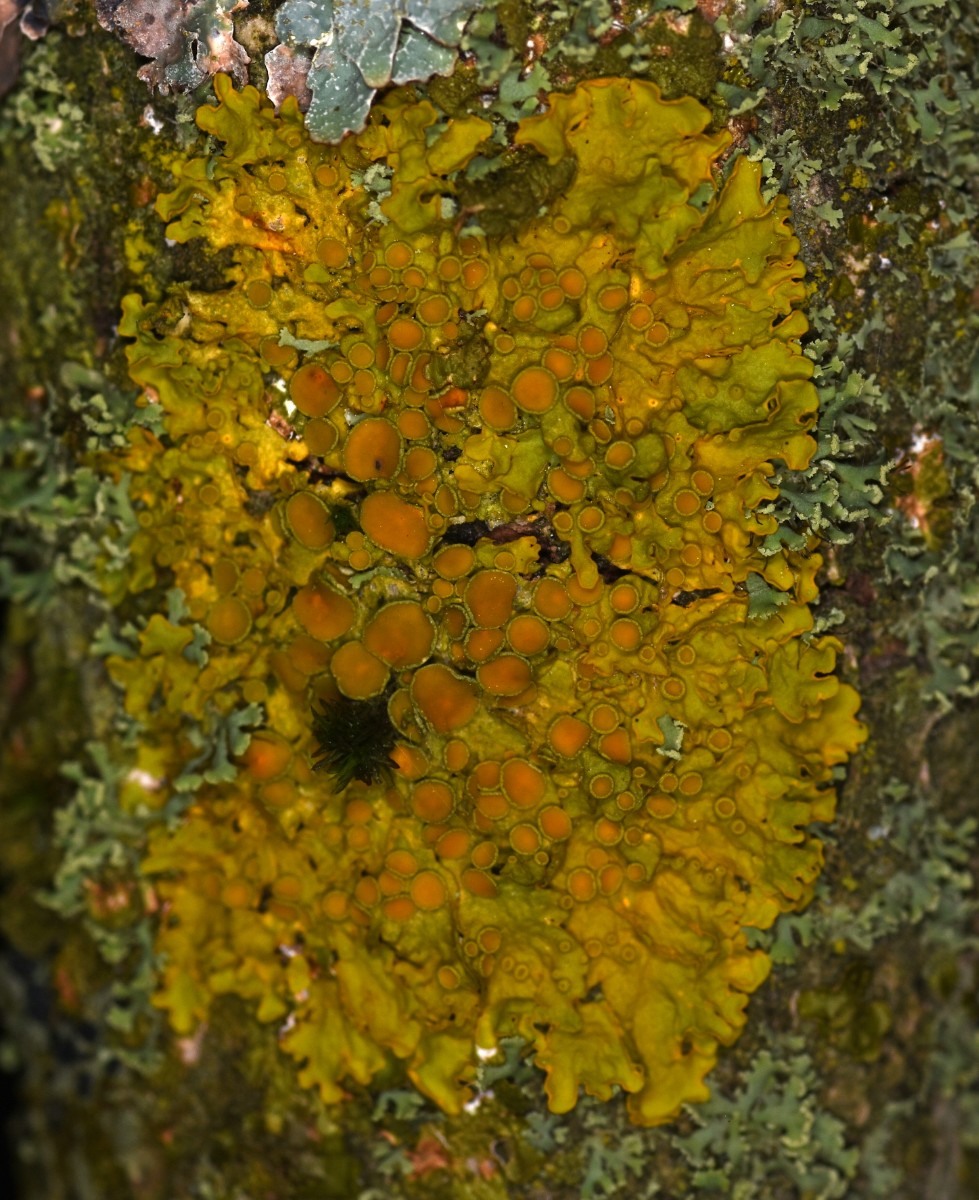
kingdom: Fungi
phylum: Ascomycota
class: Lecanoromycetes
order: Teloschistales
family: Teloschistaceae
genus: Xanthoria
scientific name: Xanthoria parietina
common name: almindelig væggelav
